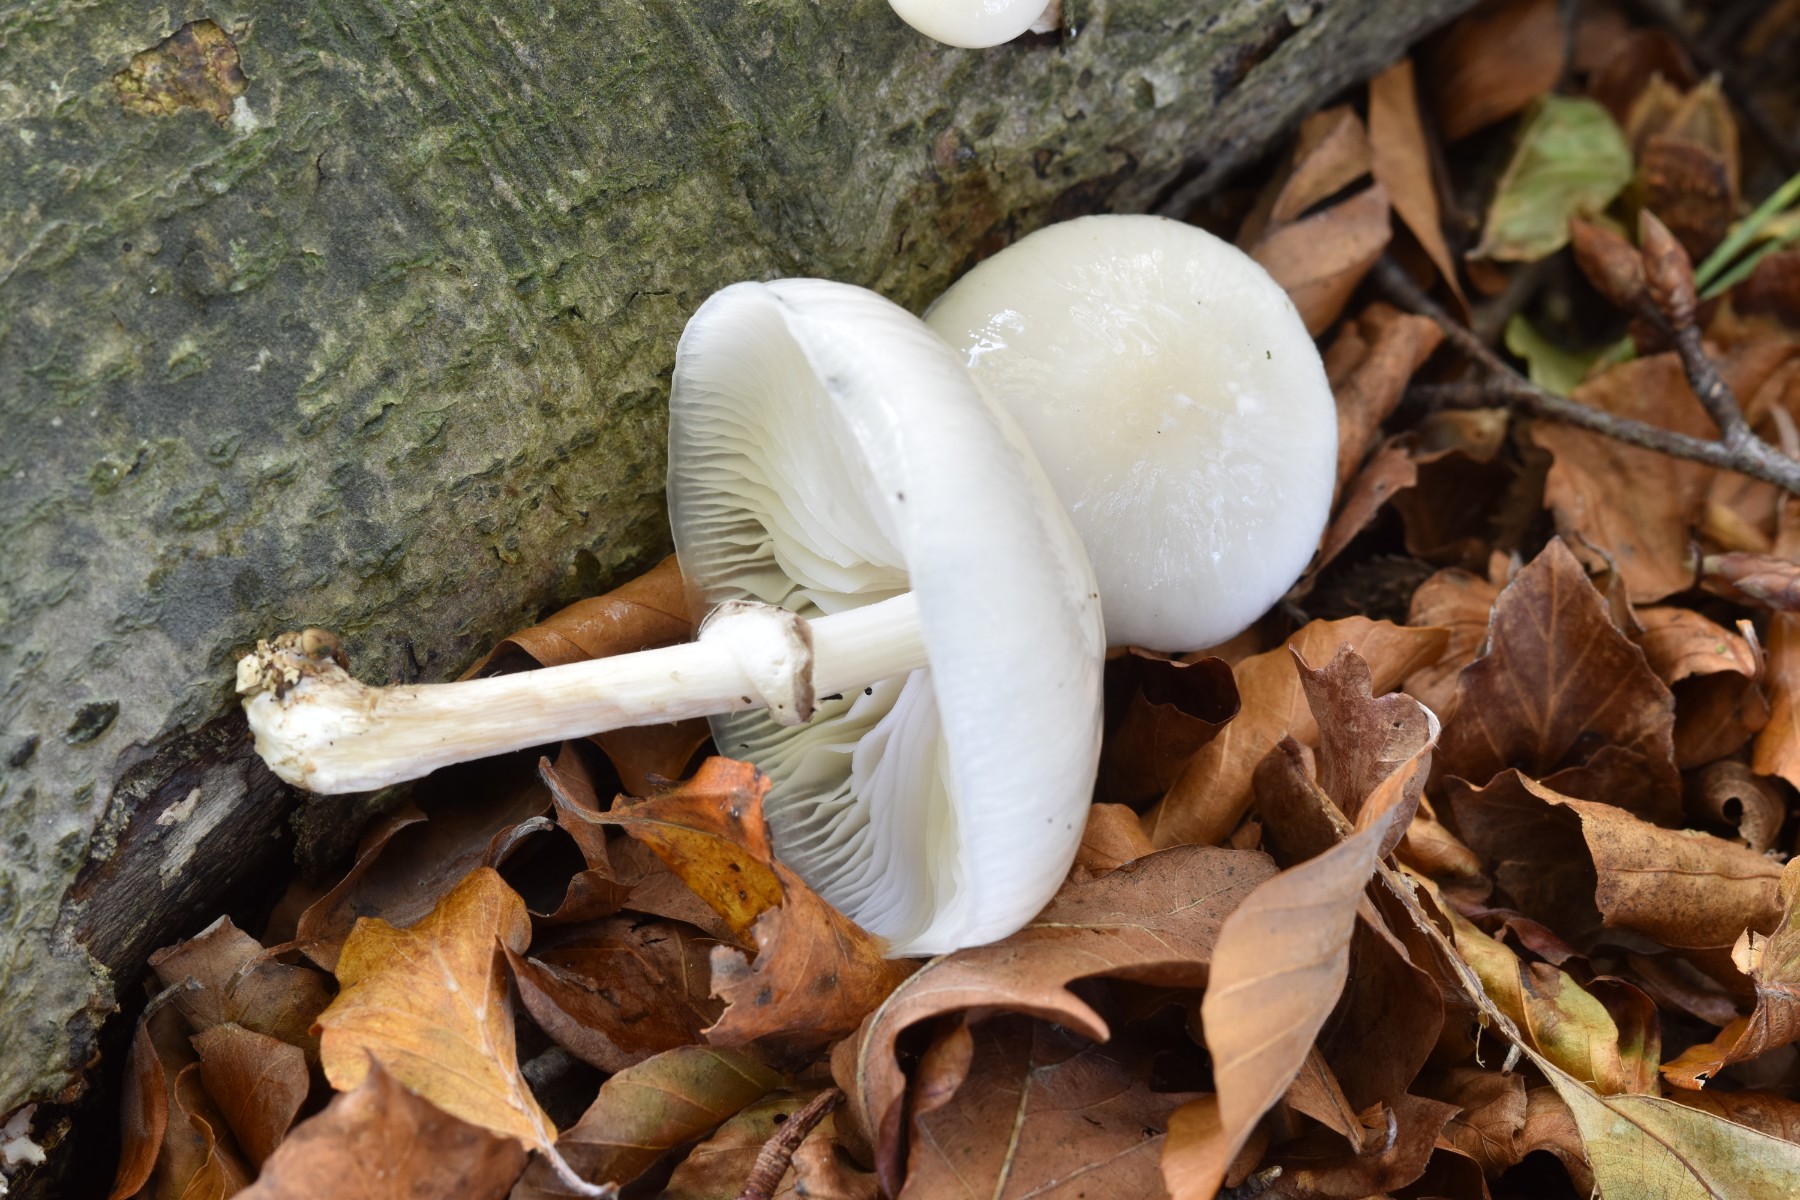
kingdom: Fungi
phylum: Basidiomycota
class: Agaricomycetes
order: Agaricales
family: Physalacriaceae
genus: Mucidula
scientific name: Mucidula mucida
